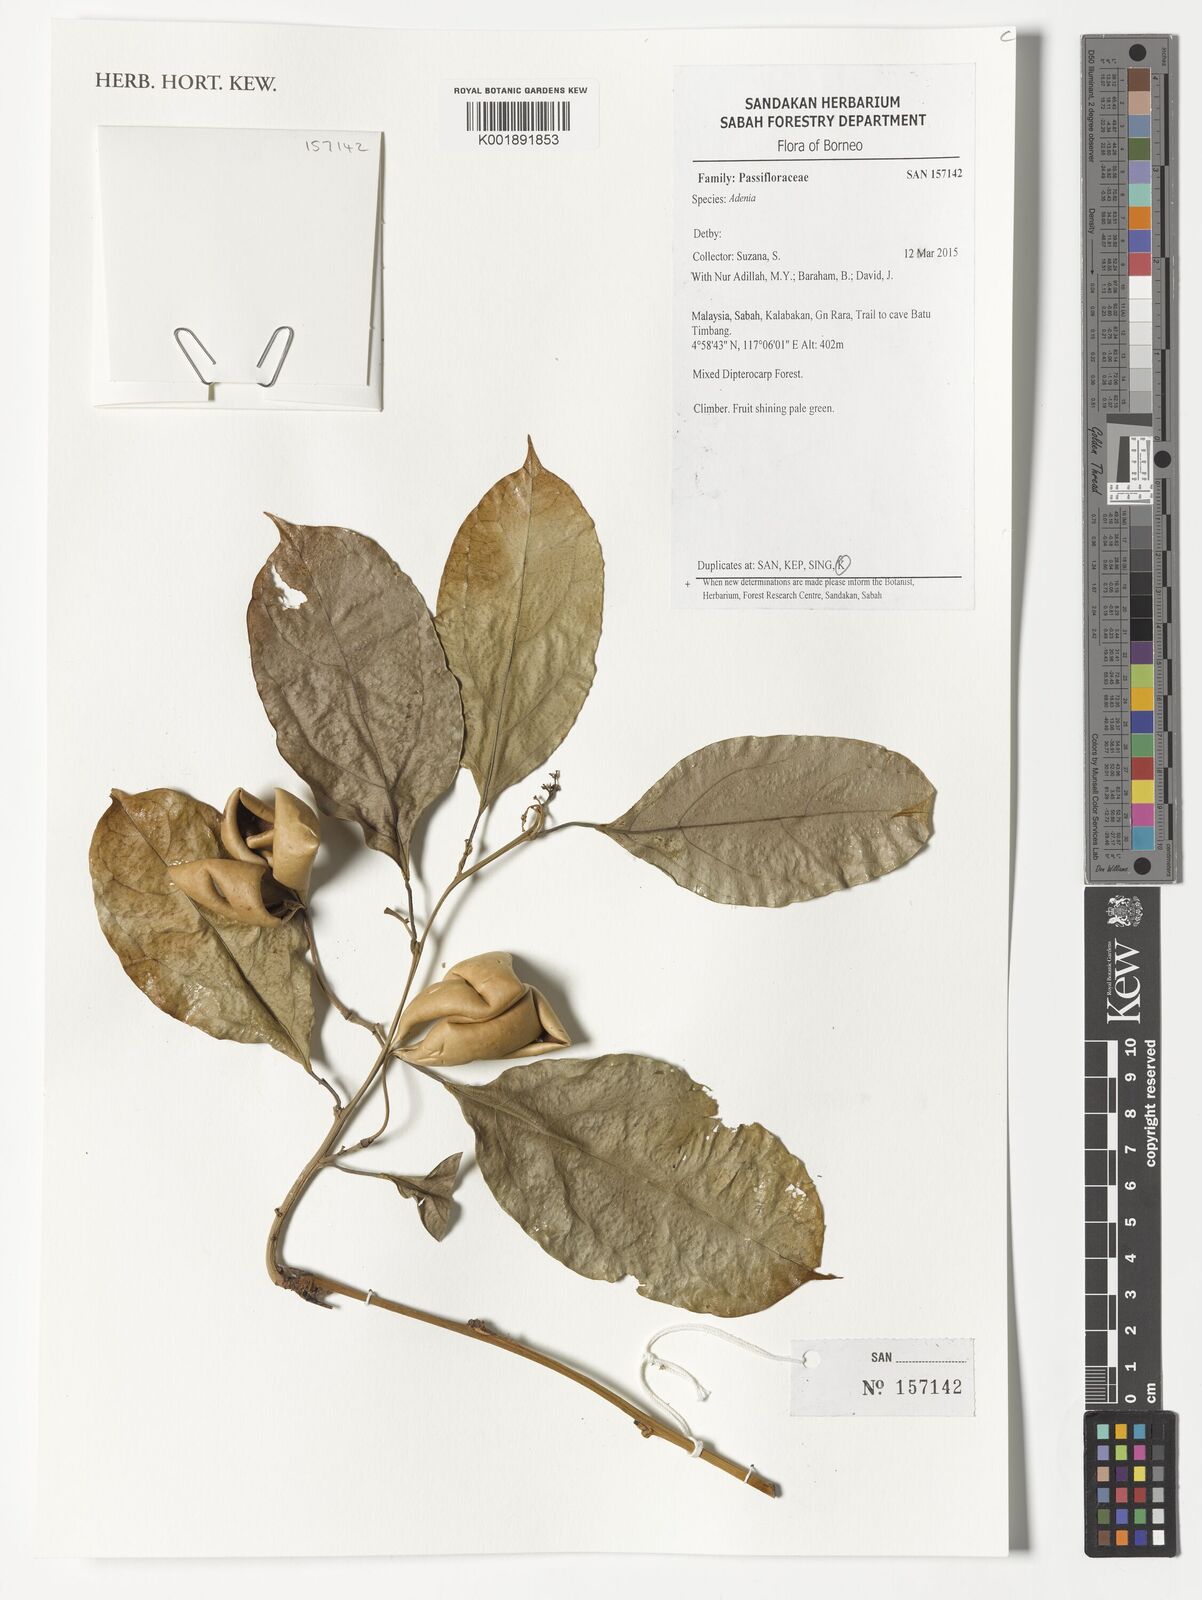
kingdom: Plantae
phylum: Tracheophyta
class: Magnoliopsida
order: Malpighiales
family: Passifloraceae
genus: Adenia
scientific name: Adenia
